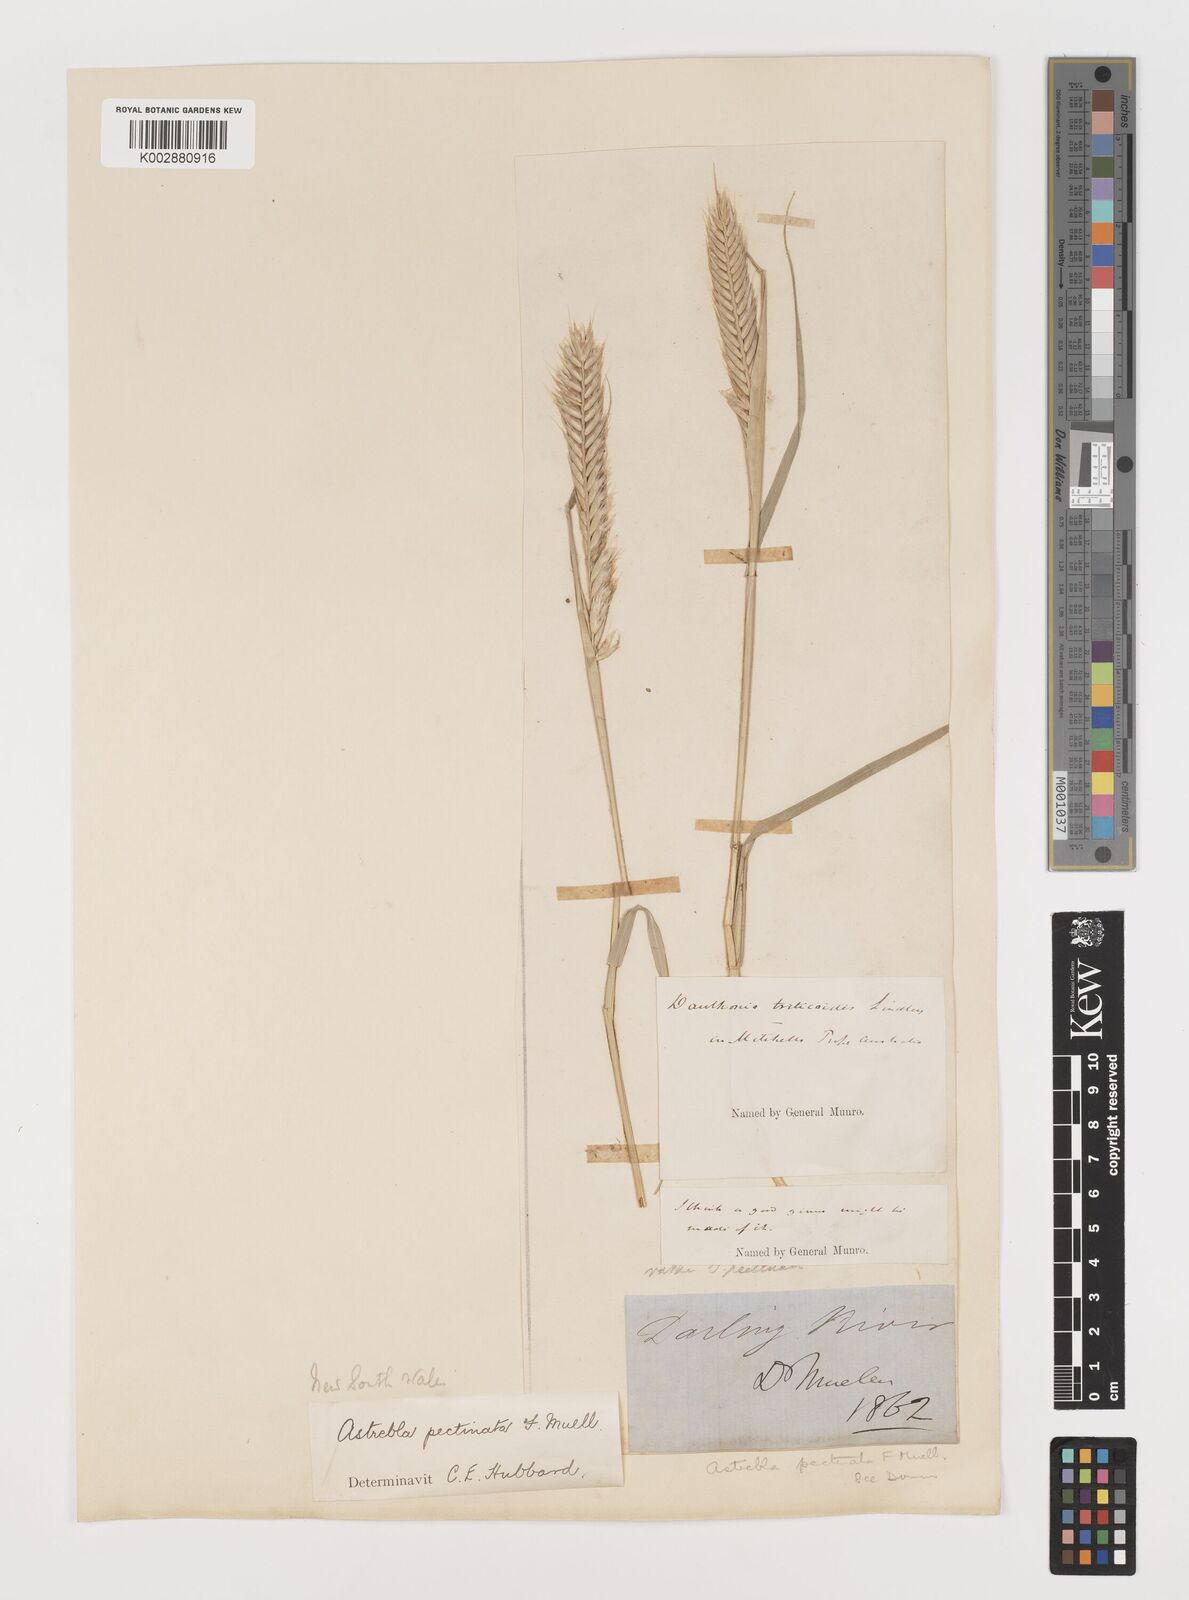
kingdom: Plantae
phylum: Tracheophyta
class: Liliopsida
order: Poales
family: Poaceae
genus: Astrebla
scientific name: Astrebla pectinata
